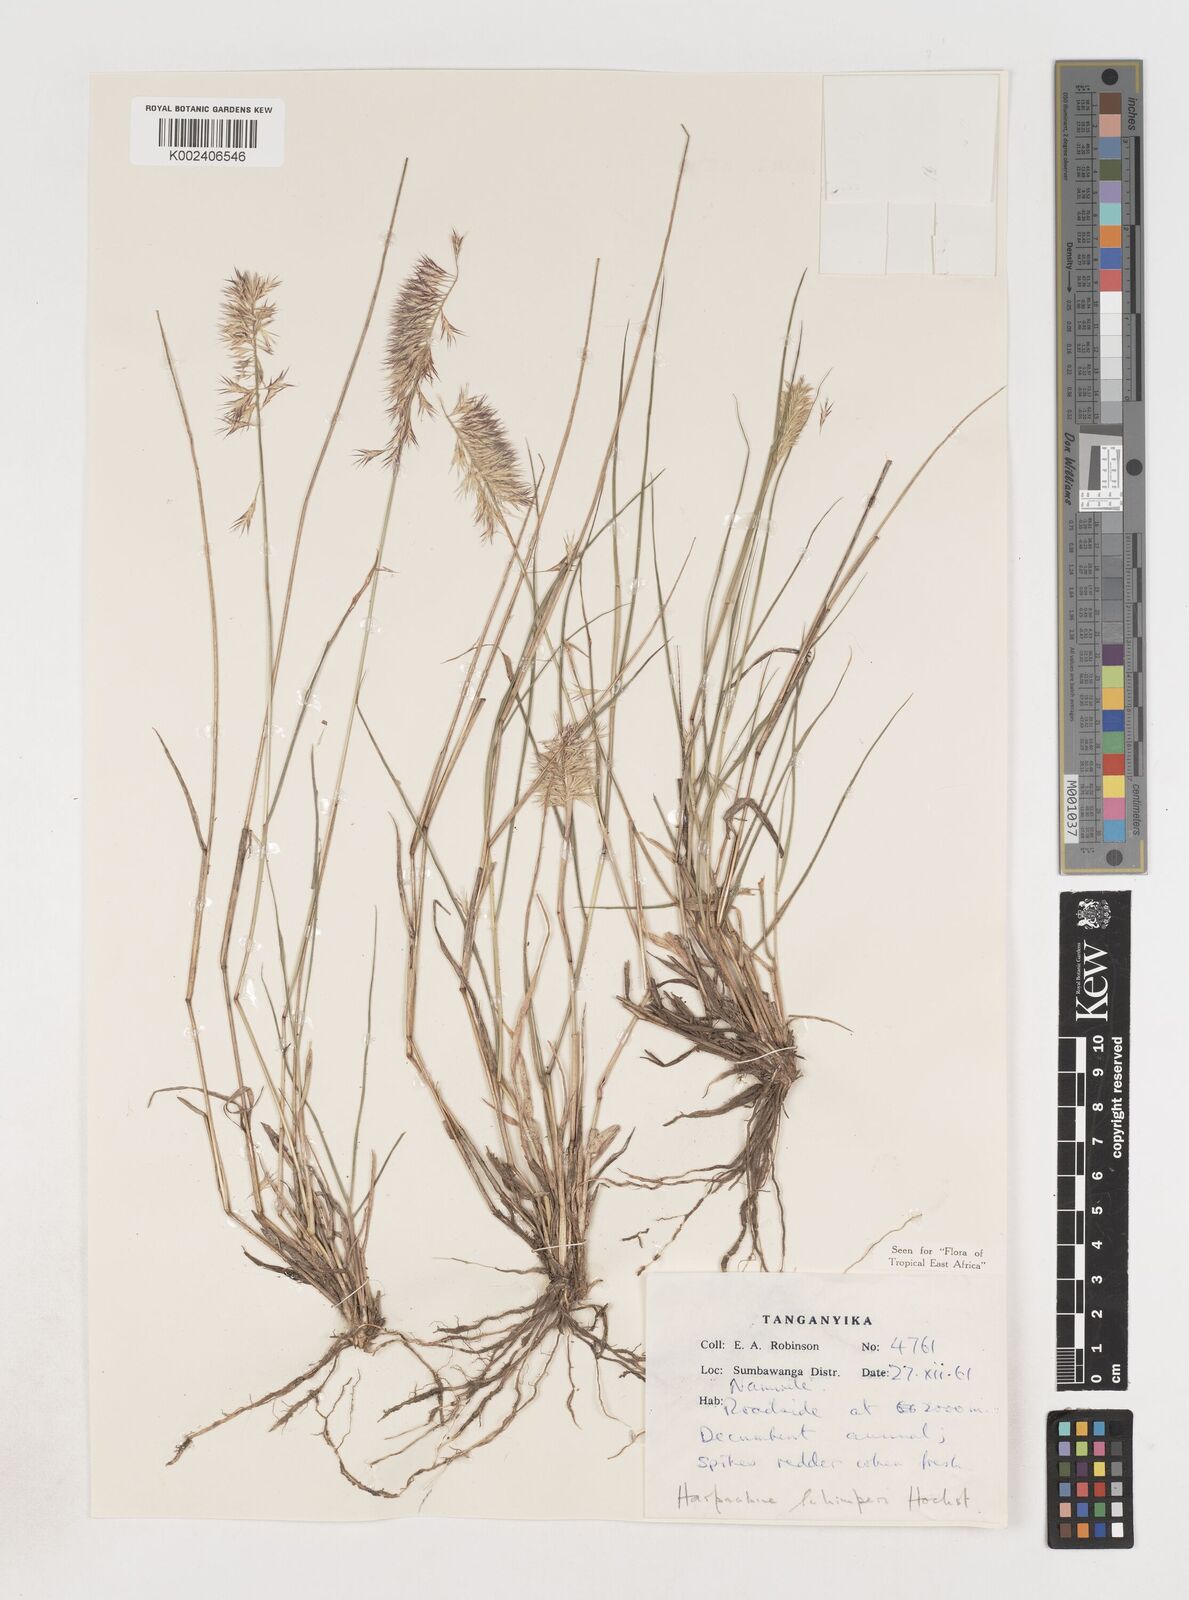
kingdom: Plantae
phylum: Tracheophyta
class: Liliopsida
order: Poales
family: Poaceae
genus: Harpachne
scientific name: Harpachne schimperi
